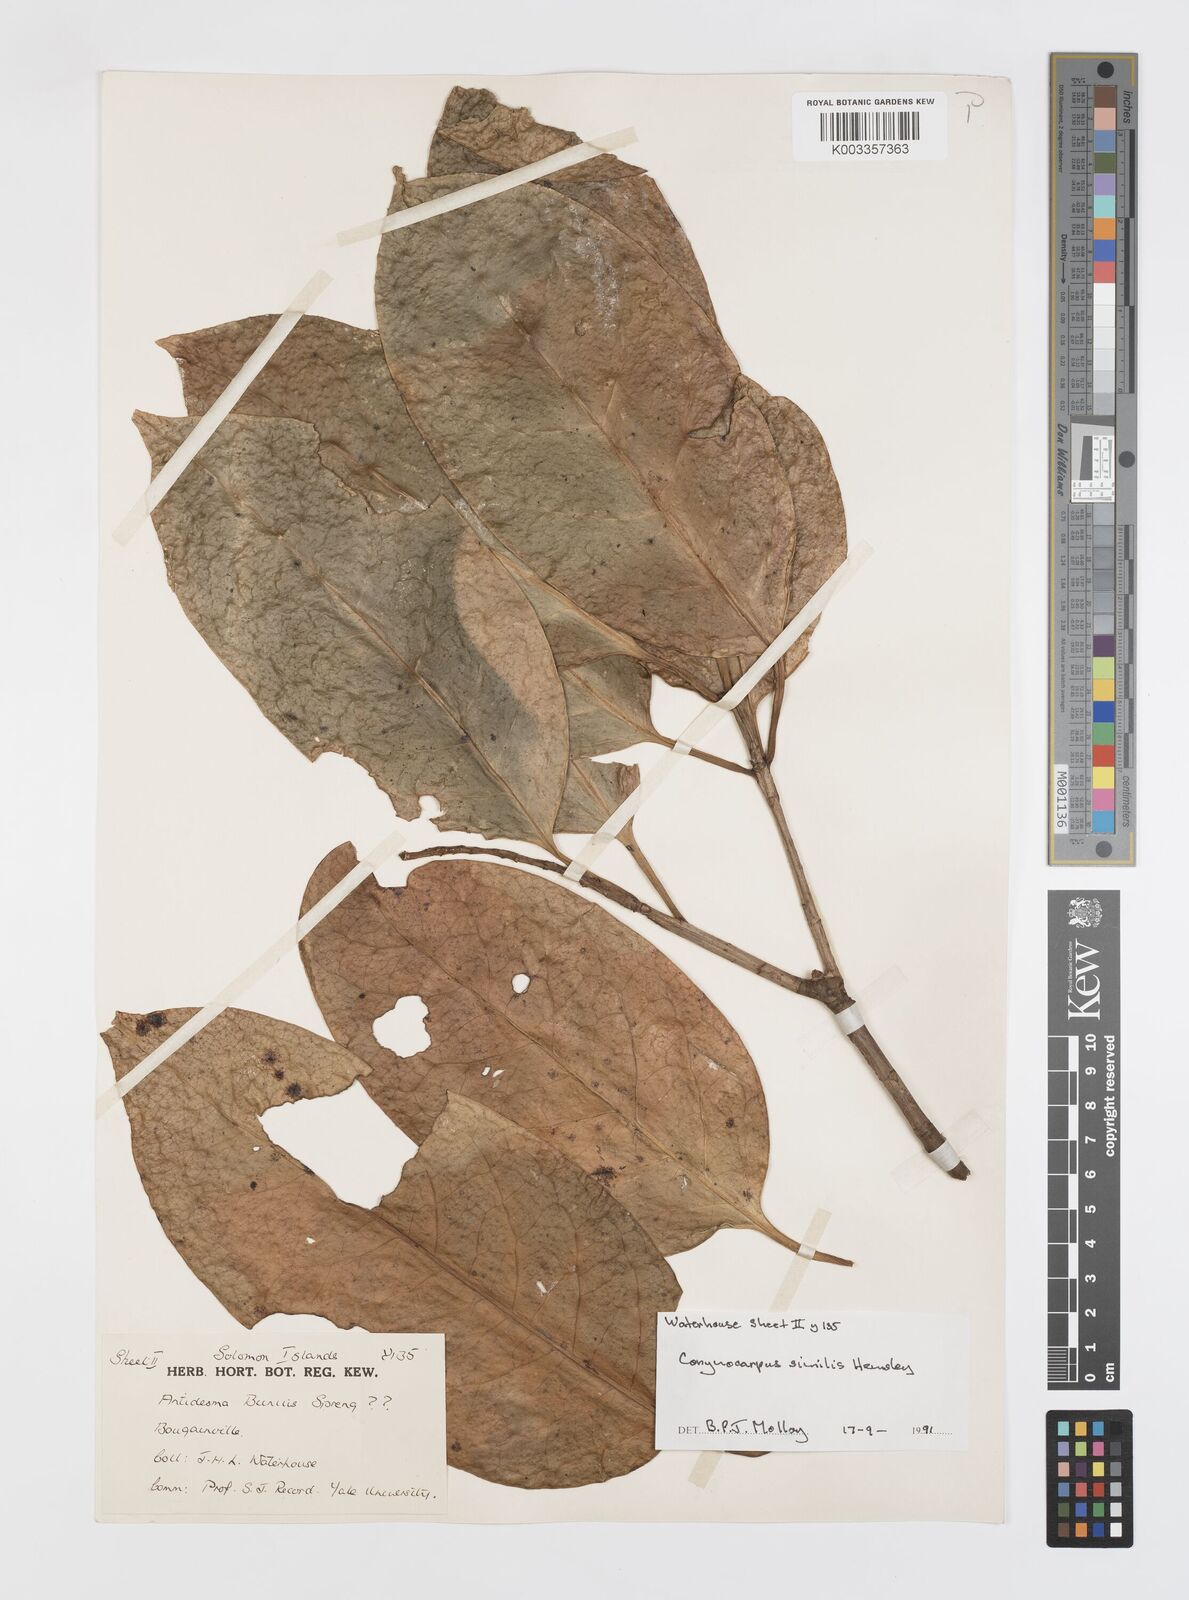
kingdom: Plantae
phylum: Tracheophyta
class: Magnoliopsida
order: Cucurbitales
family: Corynocarpaceae
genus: Corynocarpus
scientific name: Corynocarpus similis
